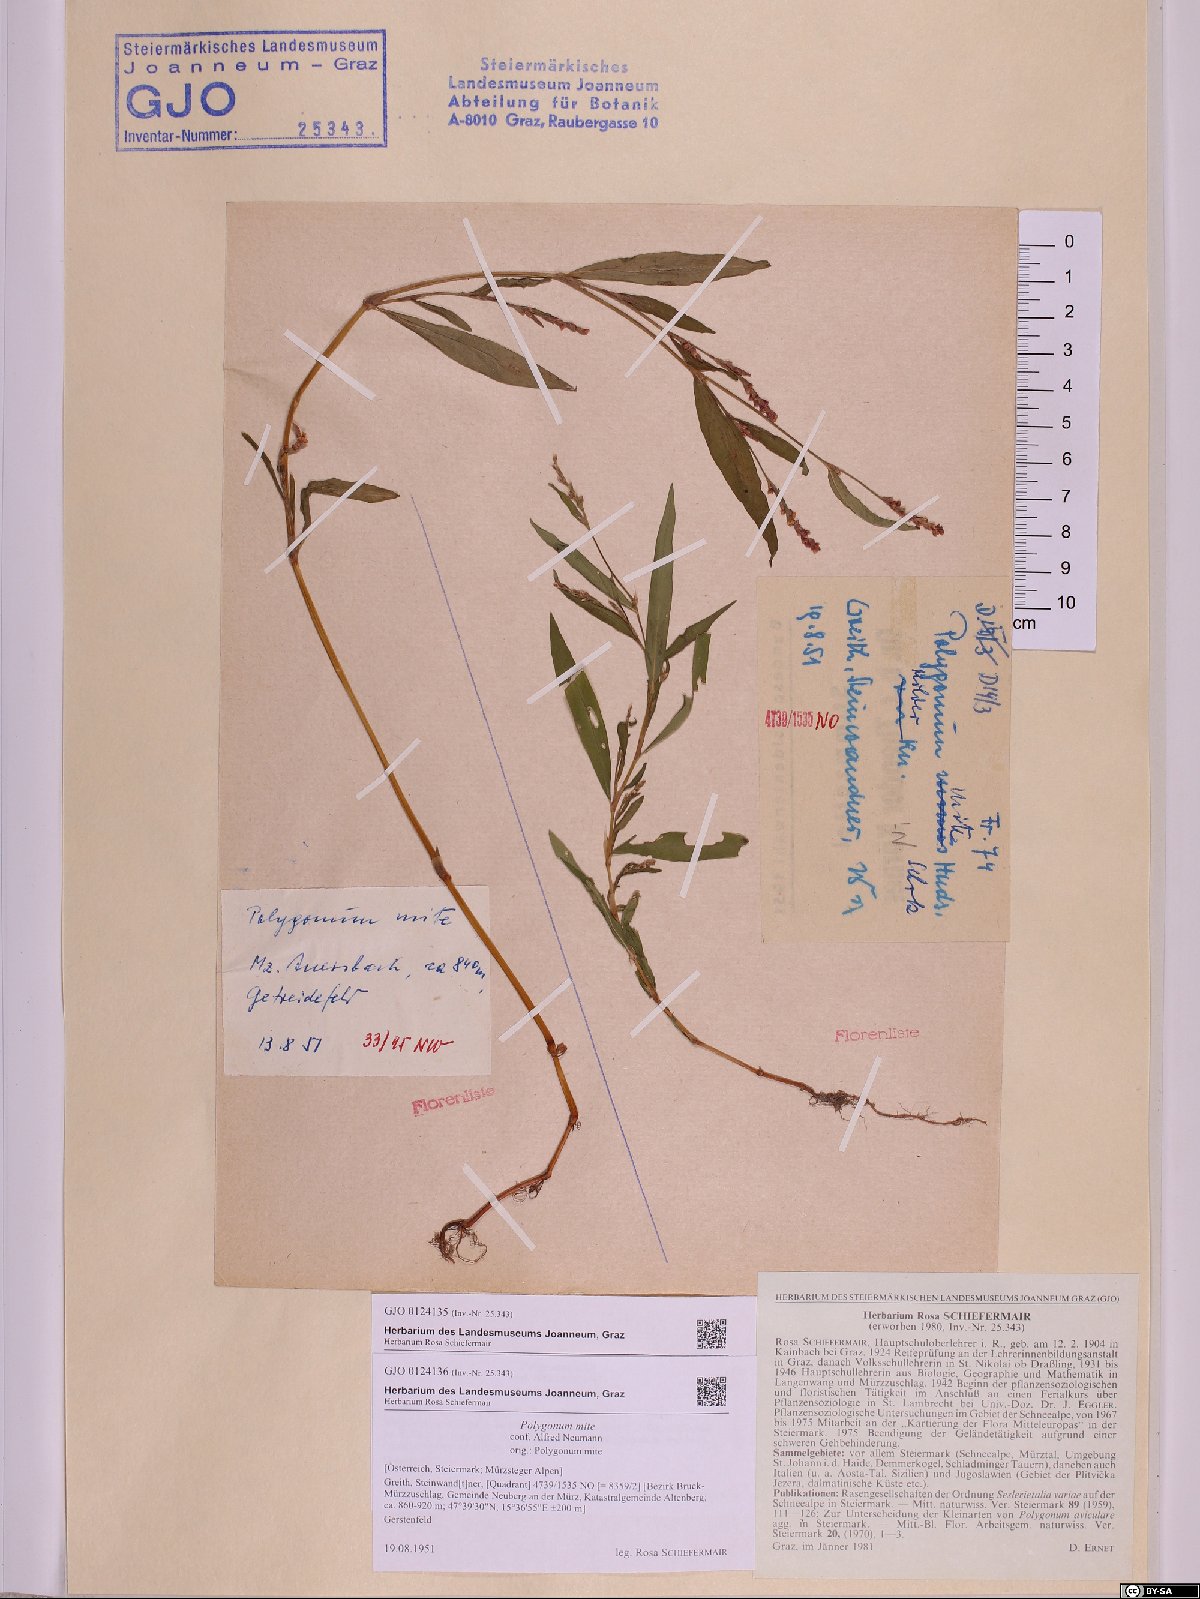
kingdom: Plantae
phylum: Tracheophyta
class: Magnoliopsida
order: Caryophyllales
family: Polygonaceae
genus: Persicaria
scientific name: Persicaria mitis
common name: Tasteless water-pepper
